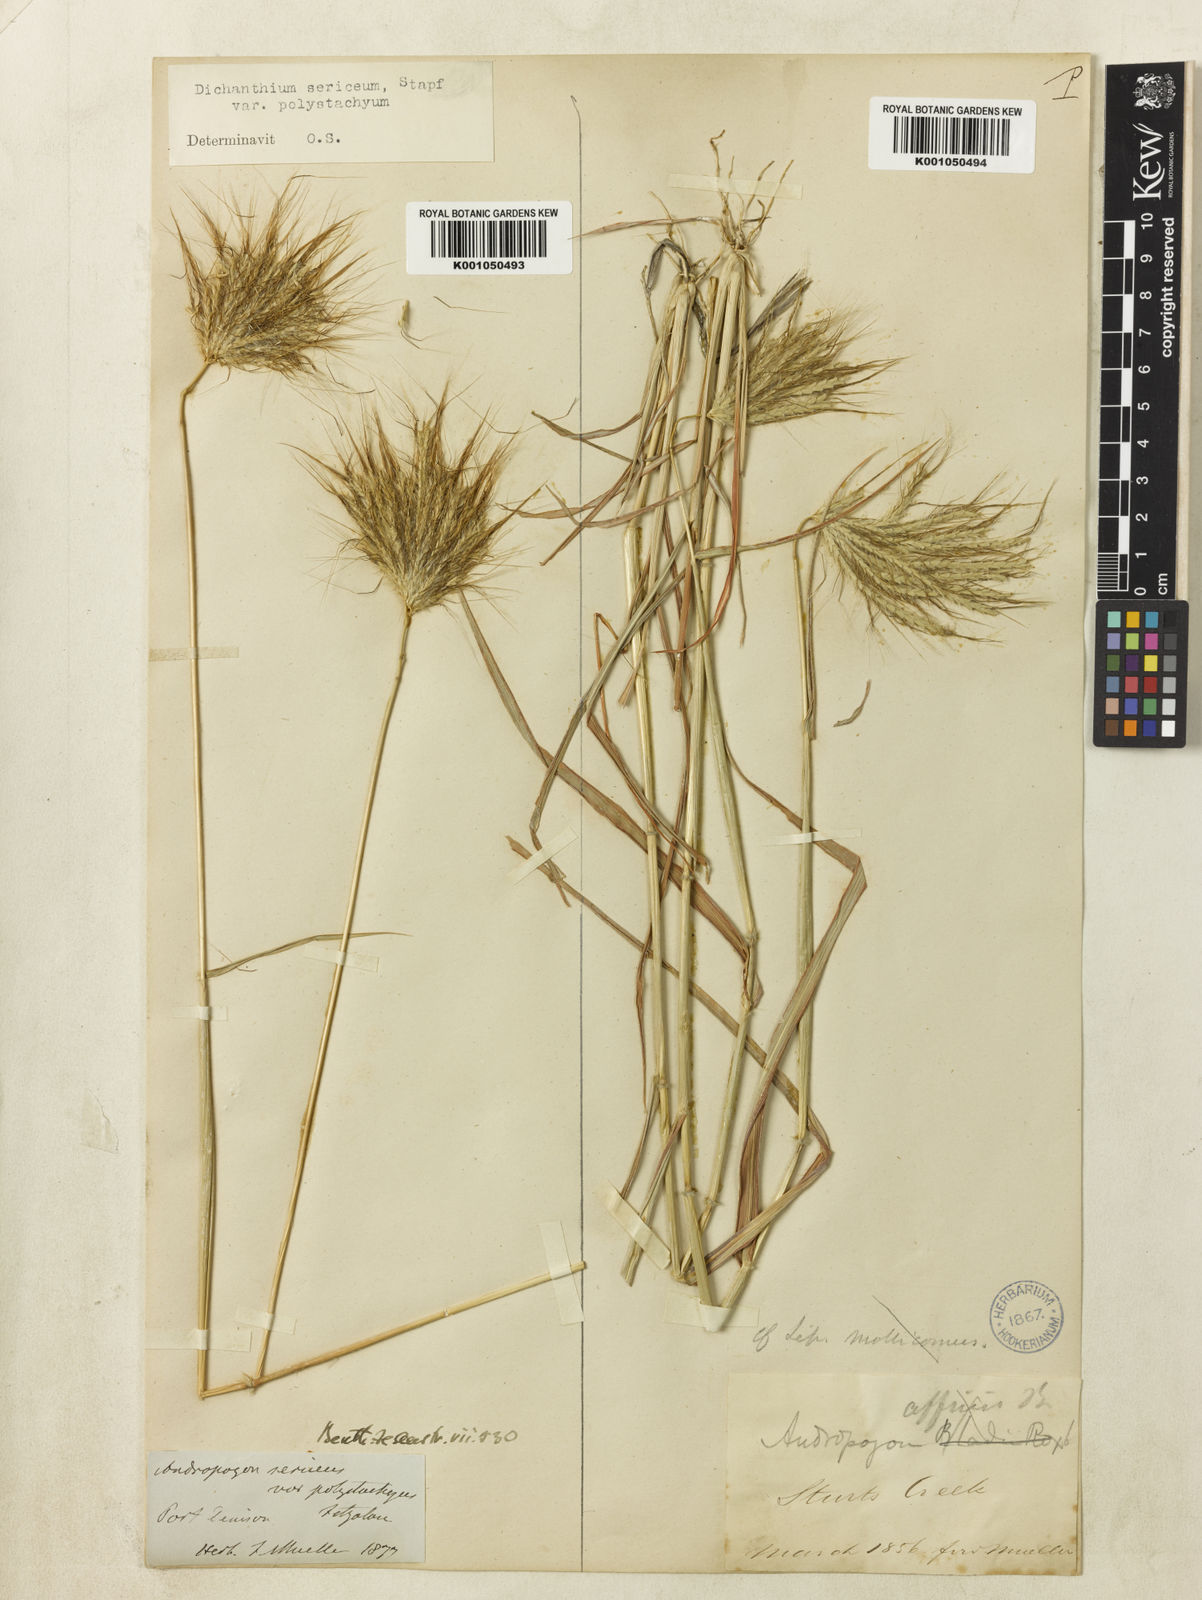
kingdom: Plantae
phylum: Tracheophyta
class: Liliopsida
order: Poales
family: Poaceae
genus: Dichanthium
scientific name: Dichanthium sericeum
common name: Silky bluestem
